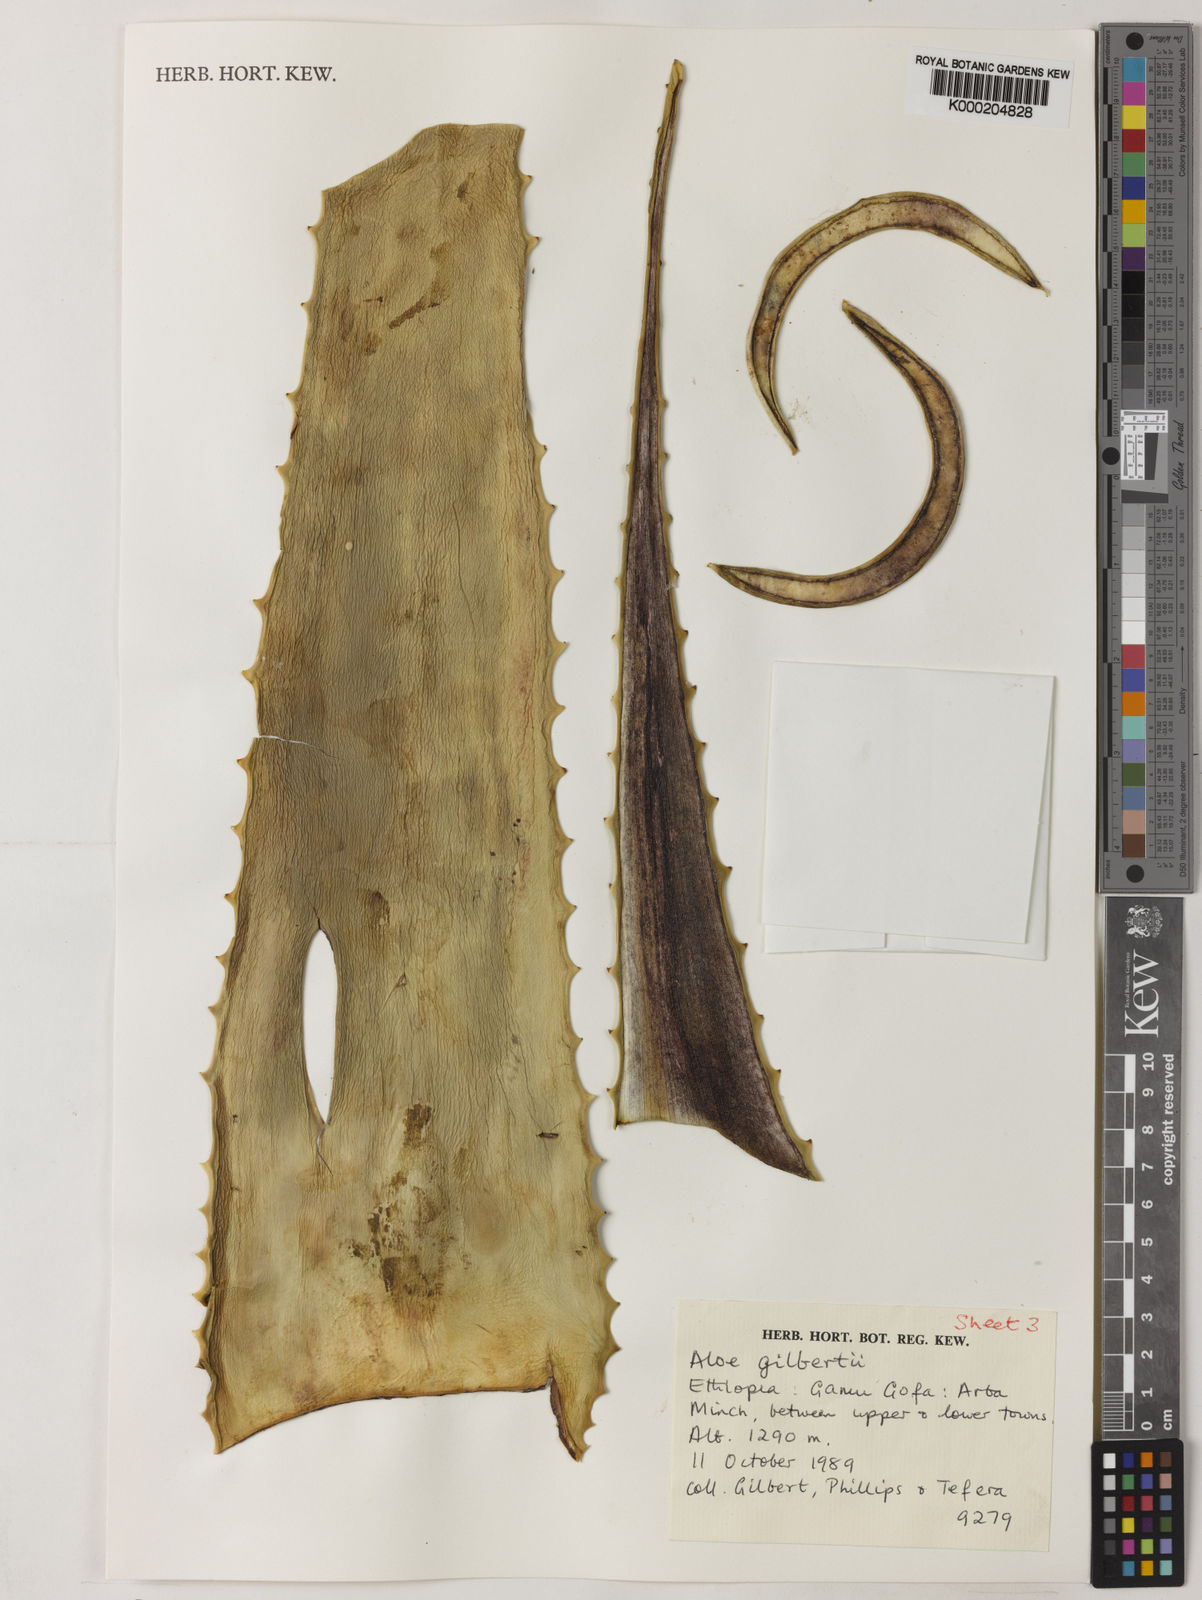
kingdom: Plantae
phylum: Tracheophyta
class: Liliopsida
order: Asparagales
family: Asphodelaceae
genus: Aloe
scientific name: Aloe gilbertii
